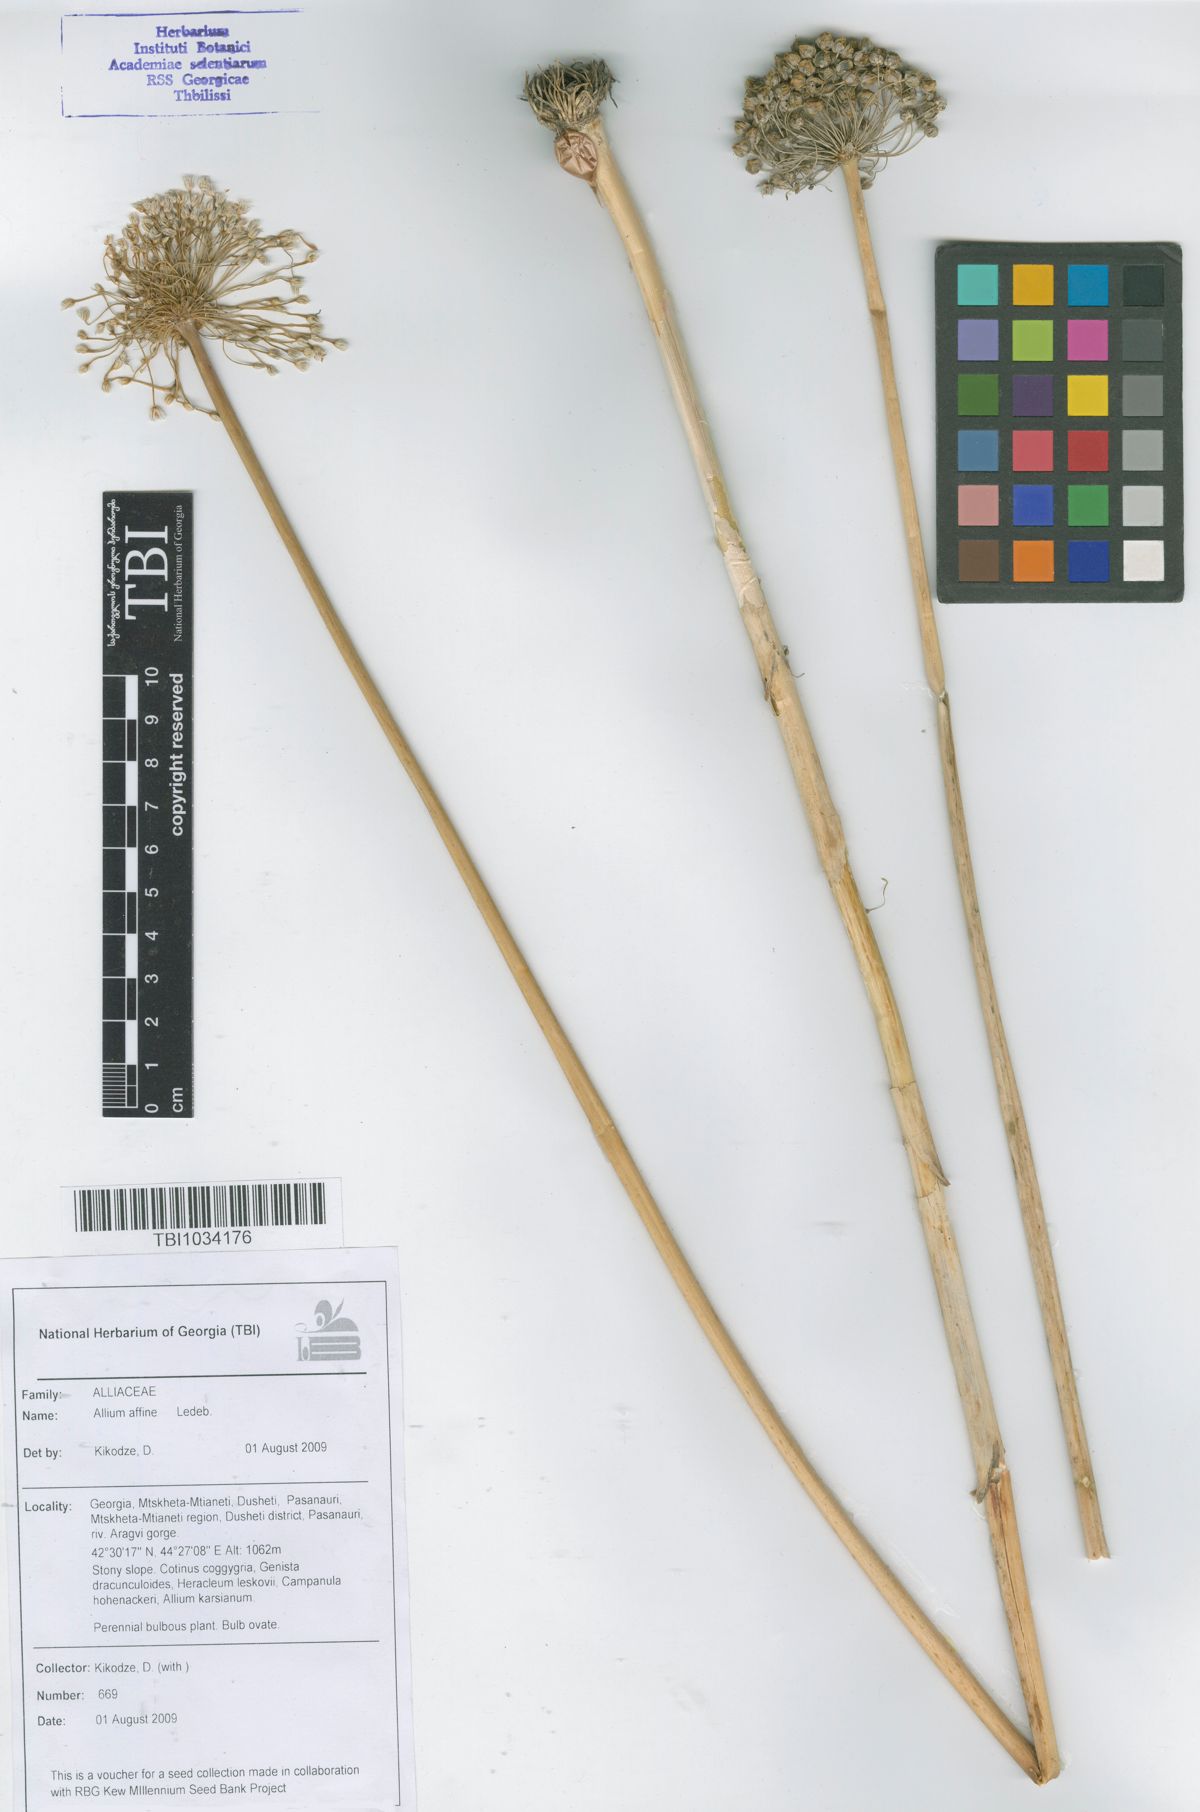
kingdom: Plantae
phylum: Tracheophyta
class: Liliopsida
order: Asparagales
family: Amaryllidaceae
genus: Allium
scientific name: Allium affine
